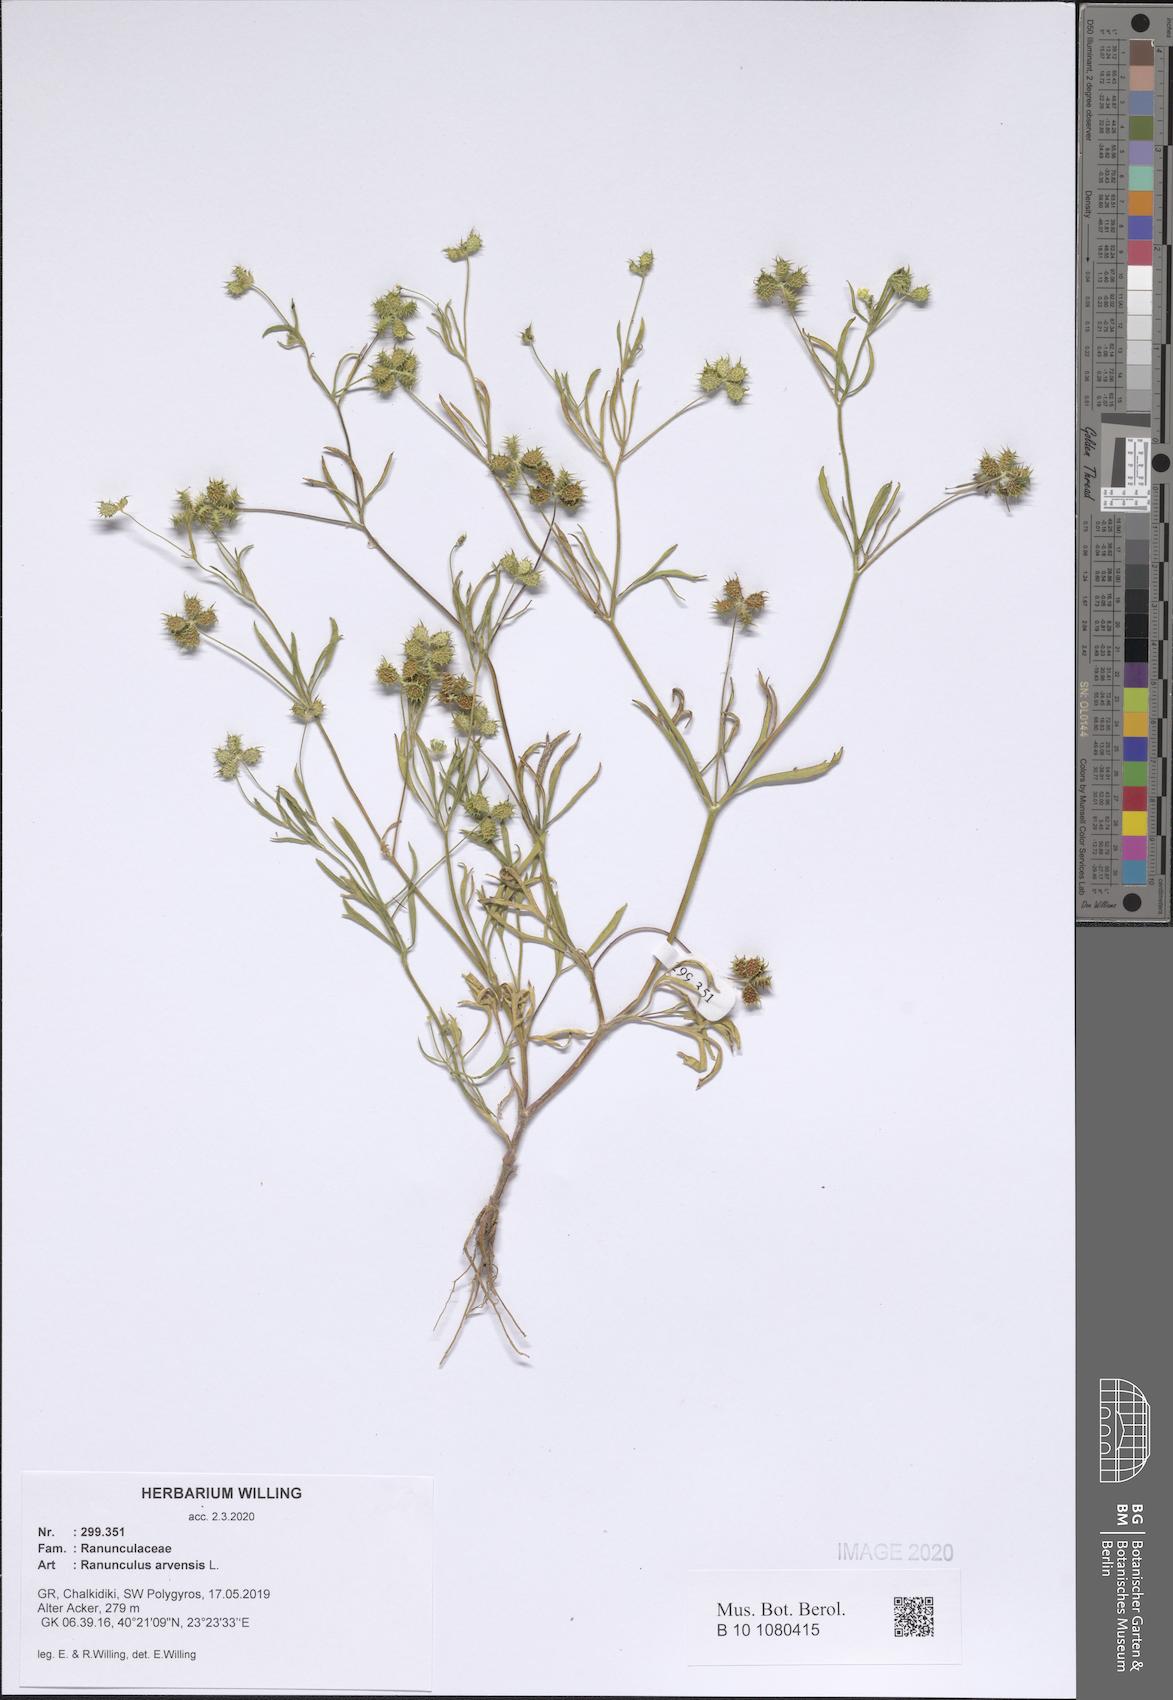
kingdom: Plantae
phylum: Tracheophyta
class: Magnoliopsida
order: Ranunculales
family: Ranunculaceae
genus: Ranunculus
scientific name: Ranunculus arvensis
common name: Corn buttercup
